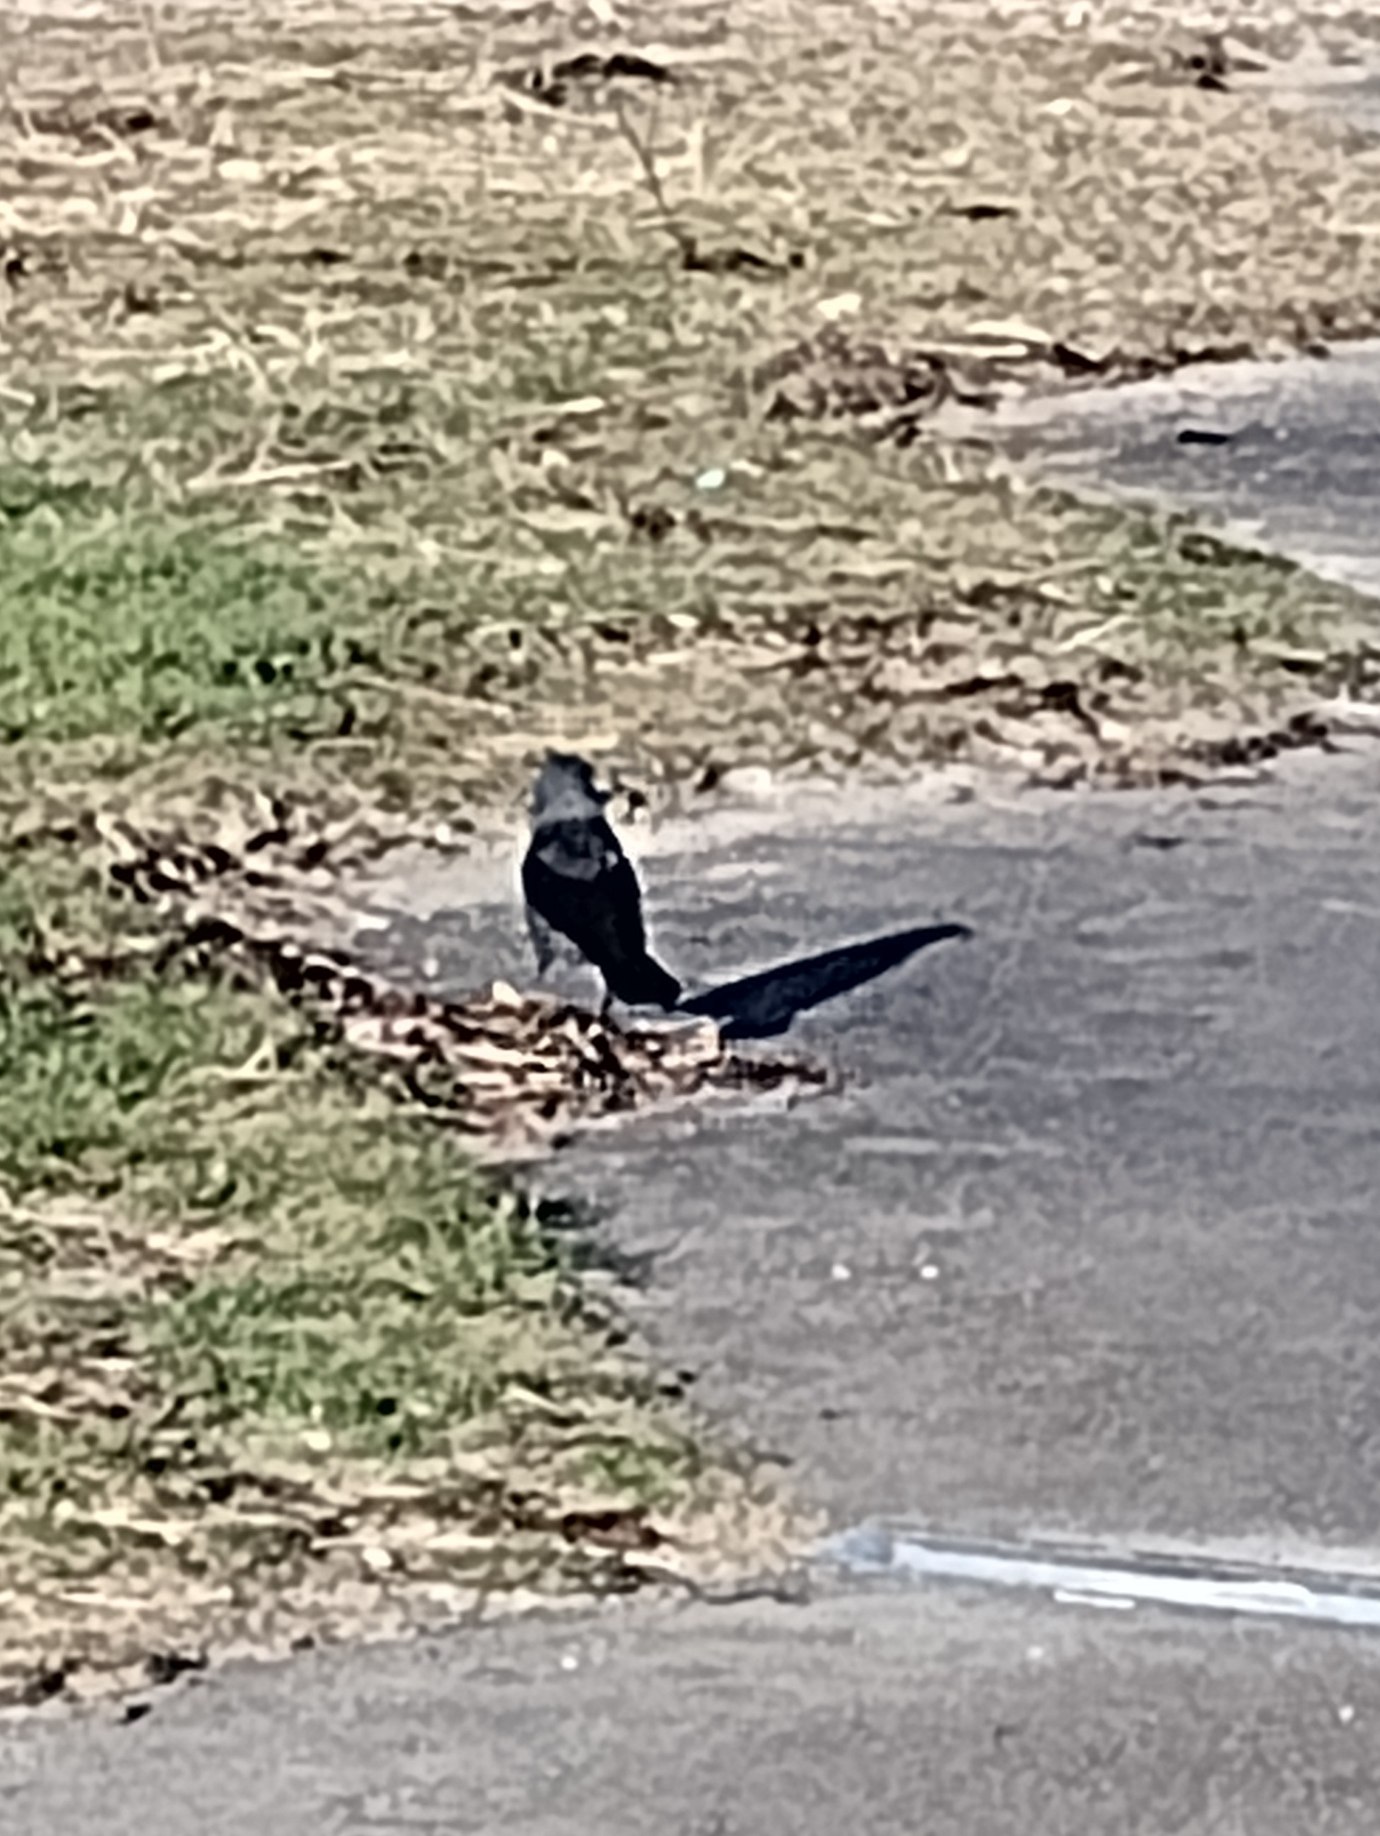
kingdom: Animalia
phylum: Chordata
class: Aves
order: Passeriformes
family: Corvidae
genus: Coloeus
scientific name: Coloeus monedula
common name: Allike
